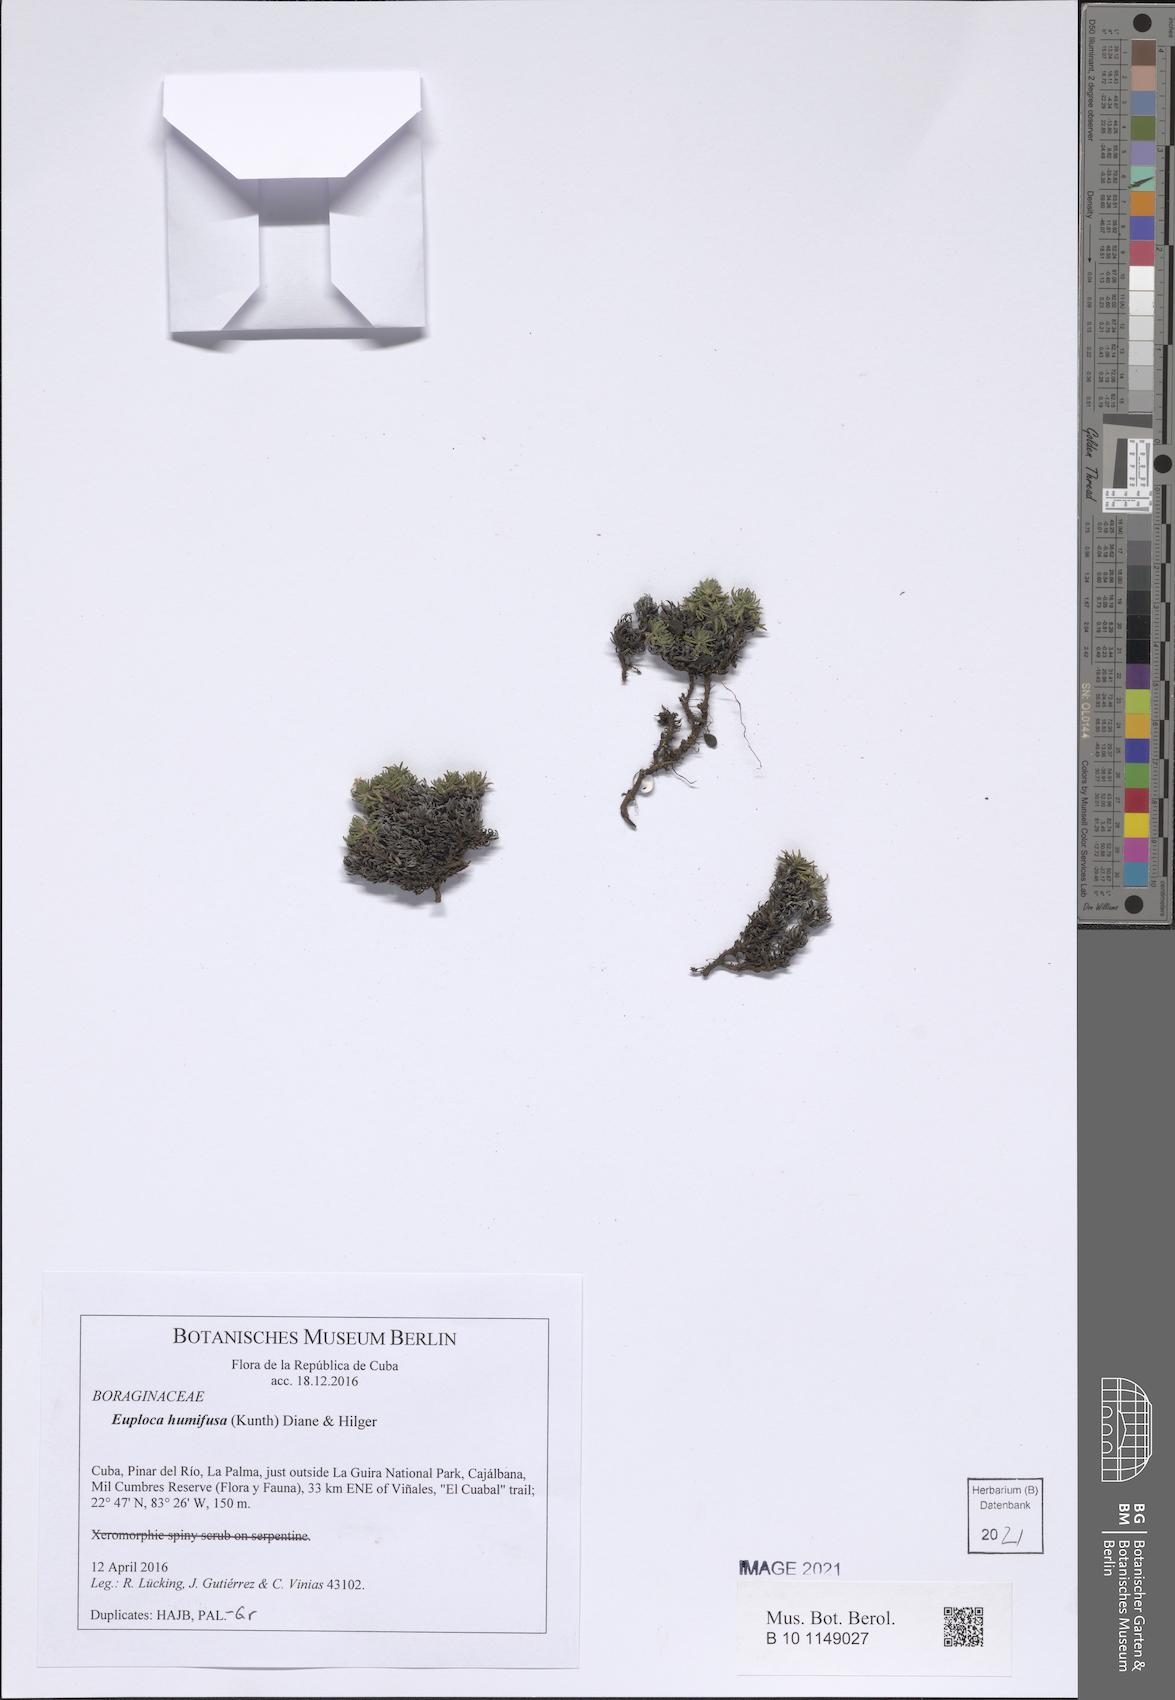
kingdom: Plantae
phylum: Tracheophyta
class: Magnoliopsida
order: Boraginales
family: Heliotropiaceae
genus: Euploca
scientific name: Euploca humifusa
